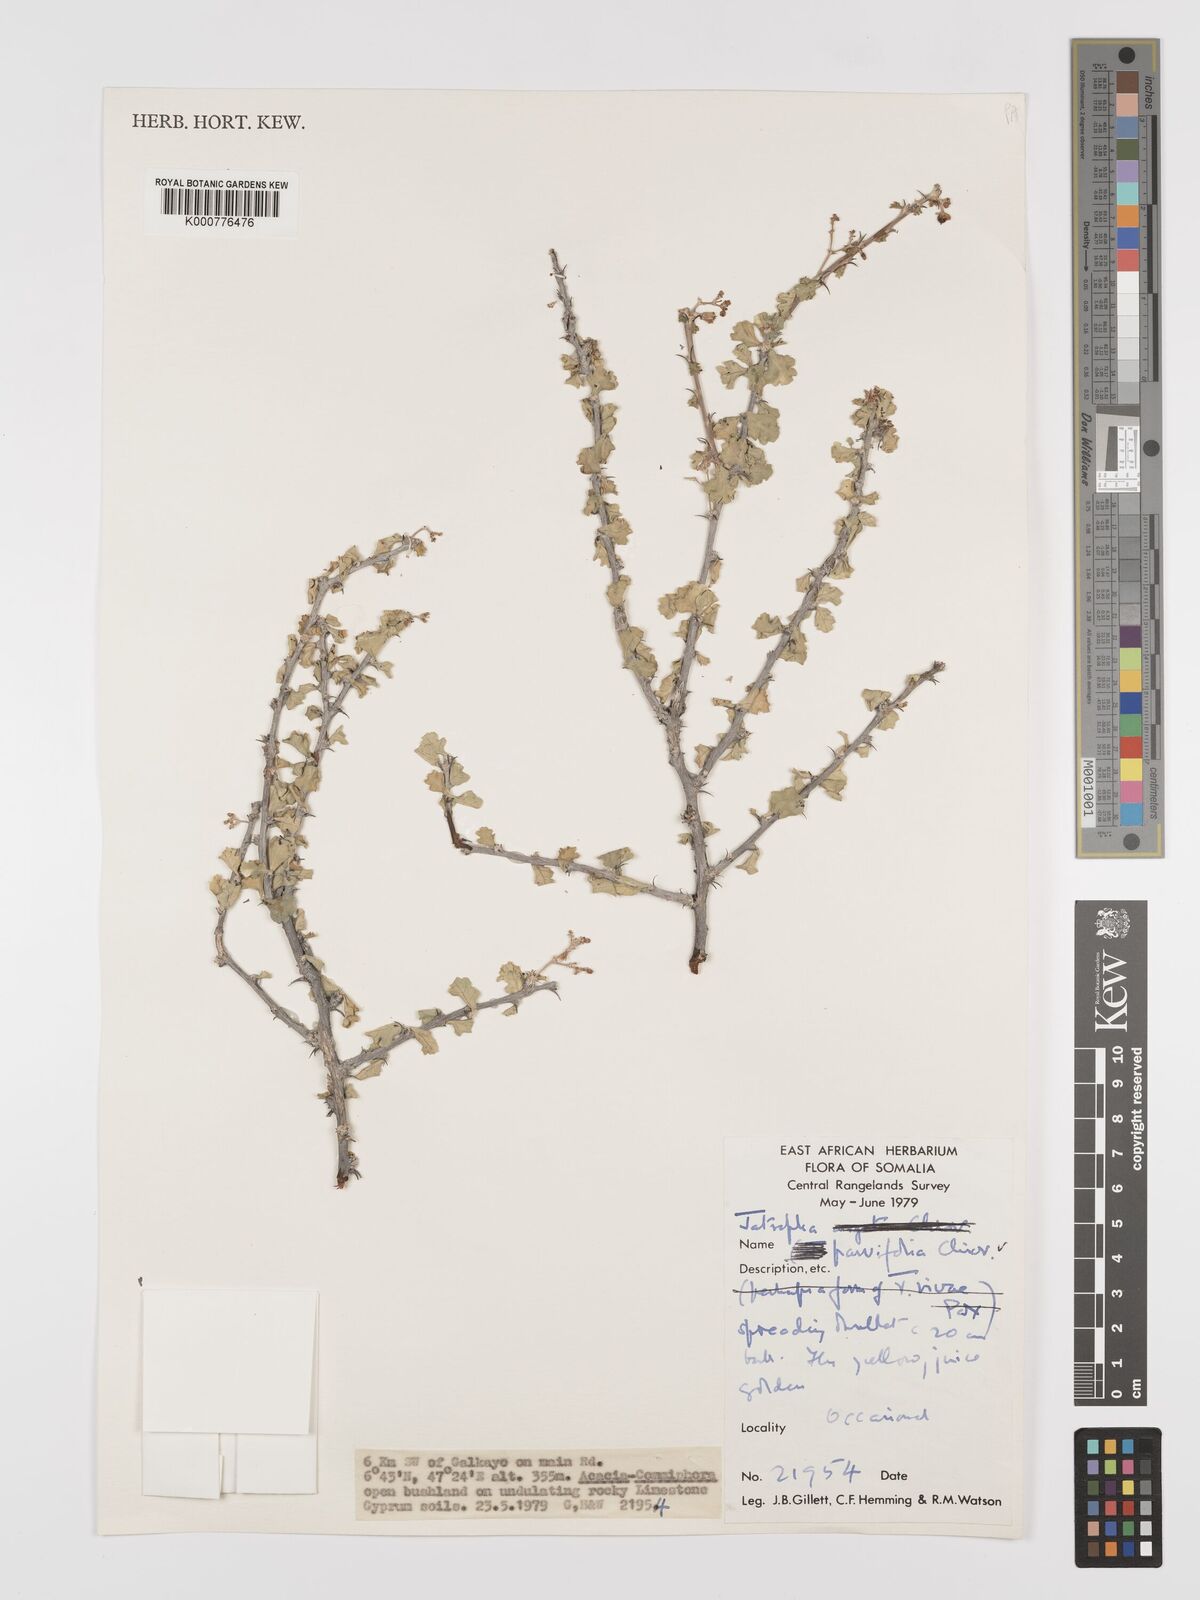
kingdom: Plantae
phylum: Tracheophyta
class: Magnoliopsida
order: Malpighiales
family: Euphorbiaceae
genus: Jatropha
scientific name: Jatropha rivae
